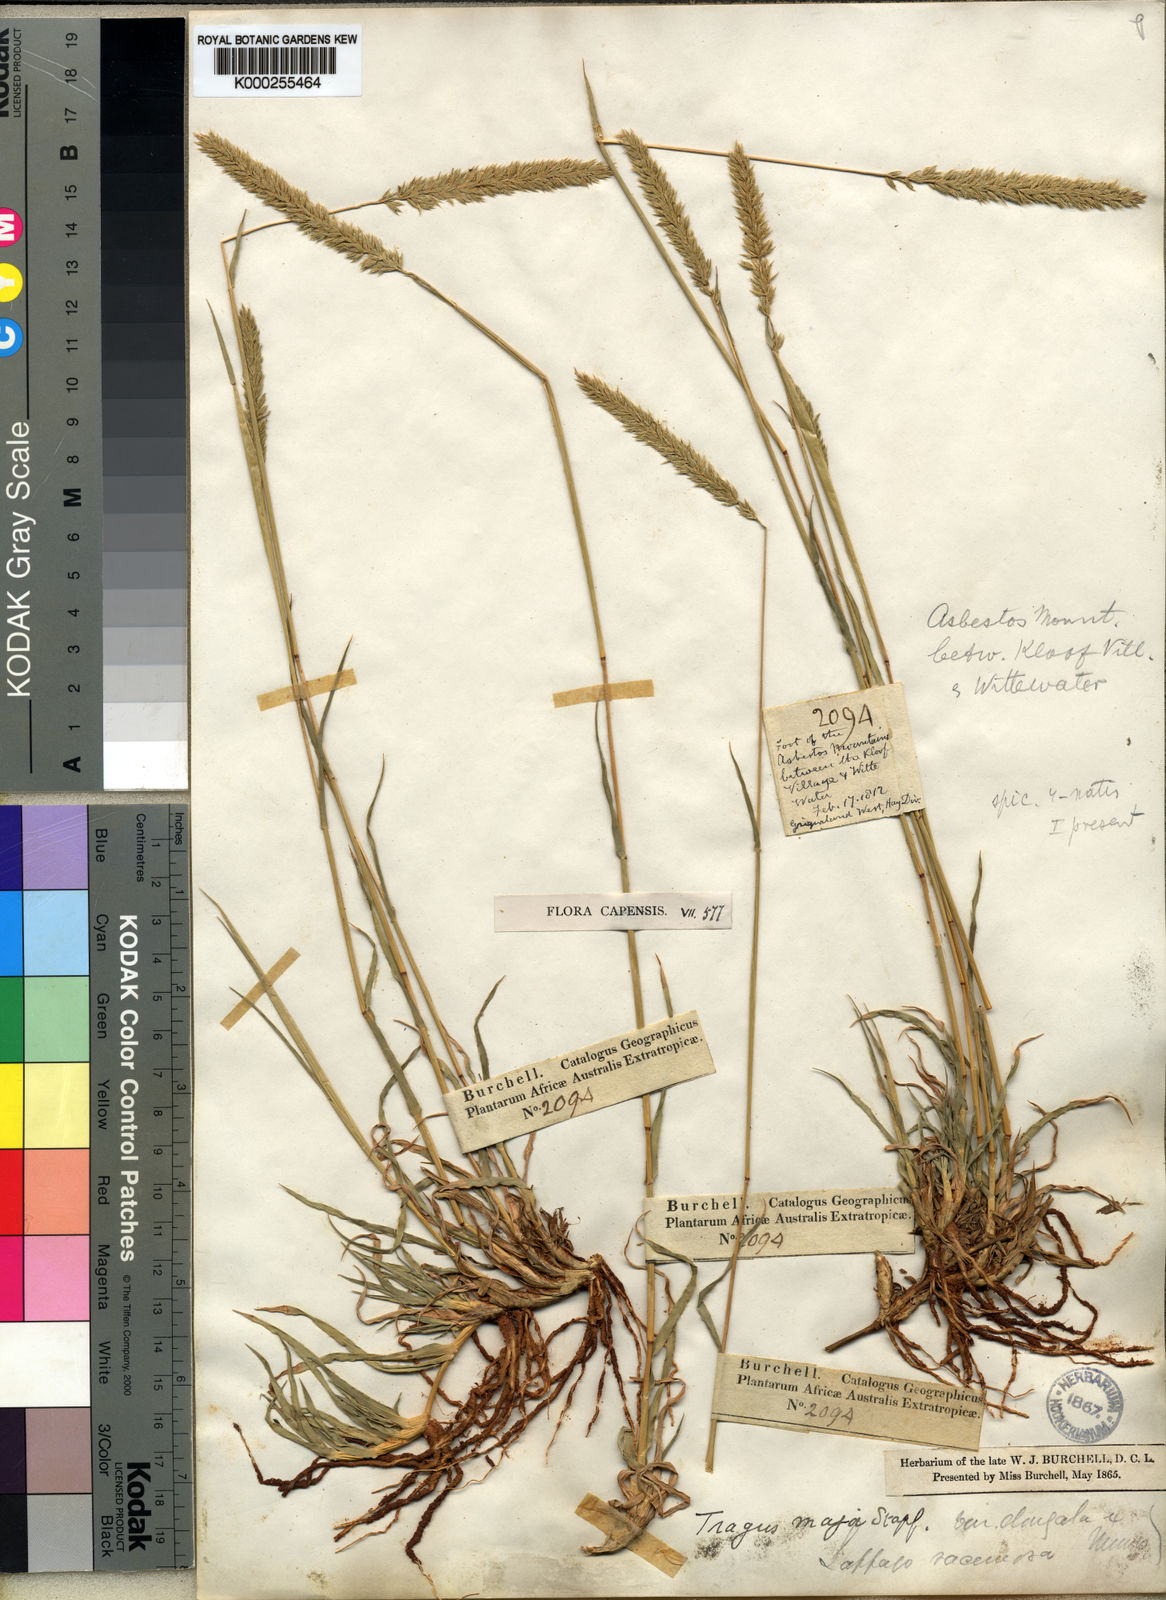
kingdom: Plantae
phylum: Tracheophyta
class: Liliopsida
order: Poales
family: Poaceae
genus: Tragus
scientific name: Tragus koelerioides
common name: Creeping carrot-seed grass
